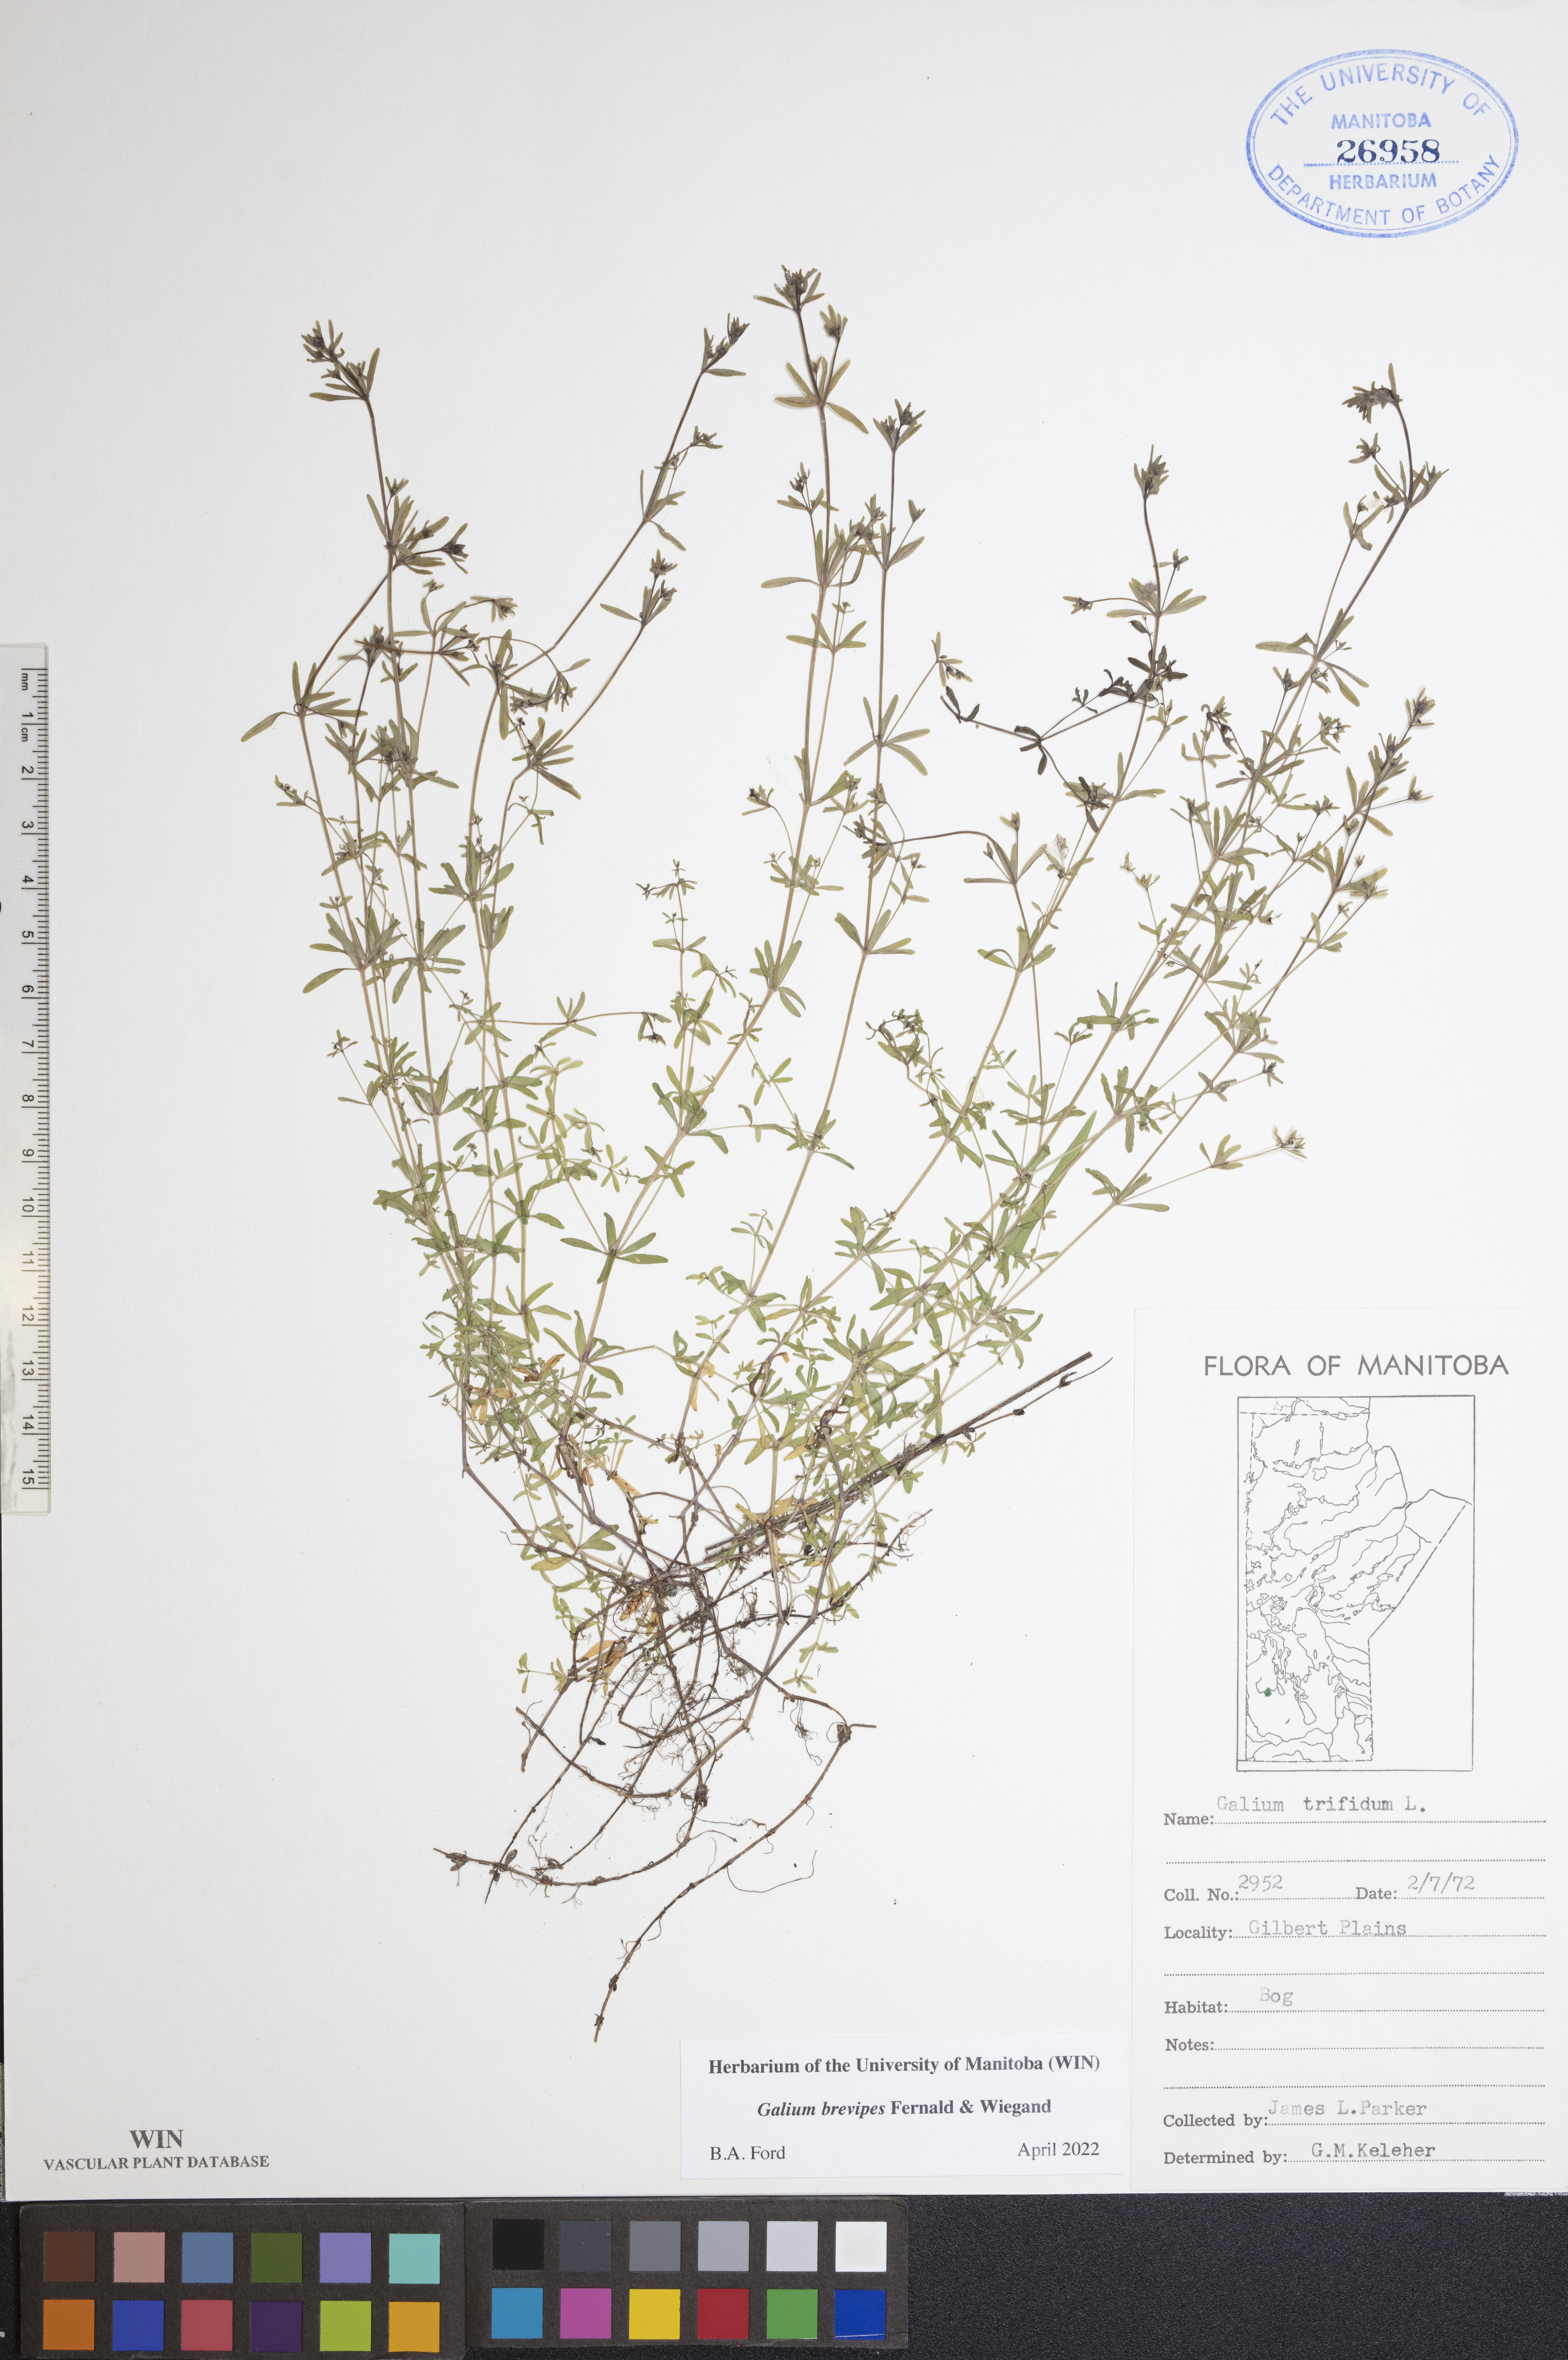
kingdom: Plantae
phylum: Tracheophyta
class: Magnoliopsida
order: Gentianales
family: Rubiaceae
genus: Galium
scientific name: Galium domingense
